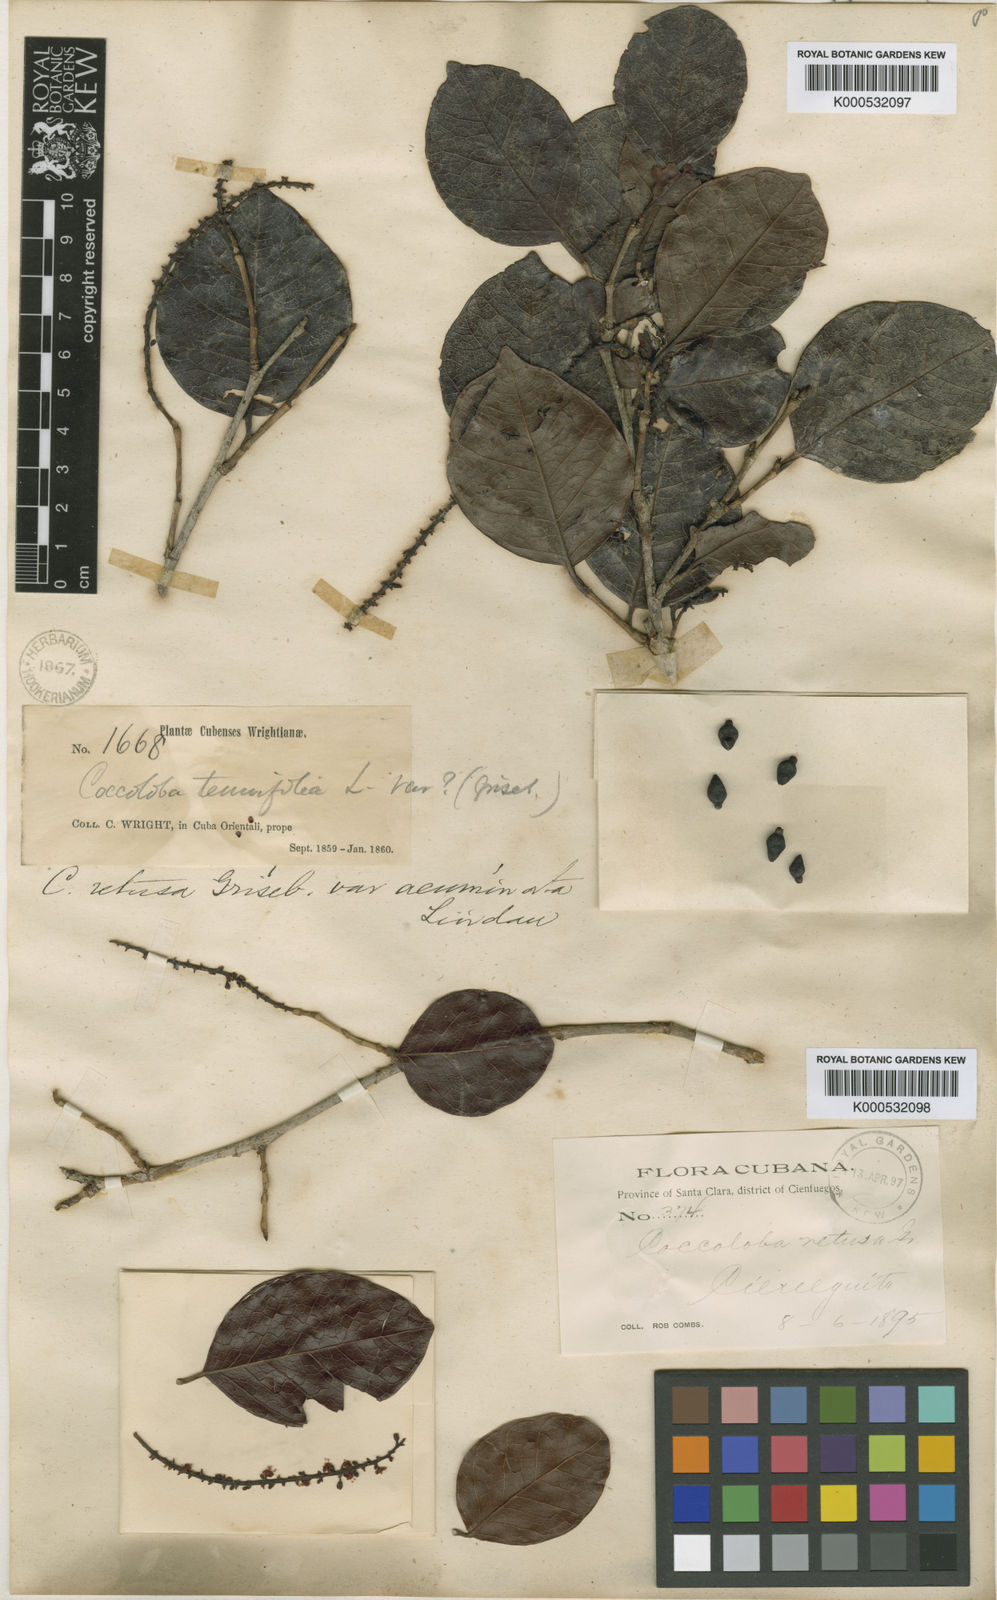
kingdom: Plantae
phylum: Tracheophyta
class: Magnoliopsida
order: Caryophyllales
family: Polygonaceae
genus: Coccoloba
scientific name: Coccoloba retusa
